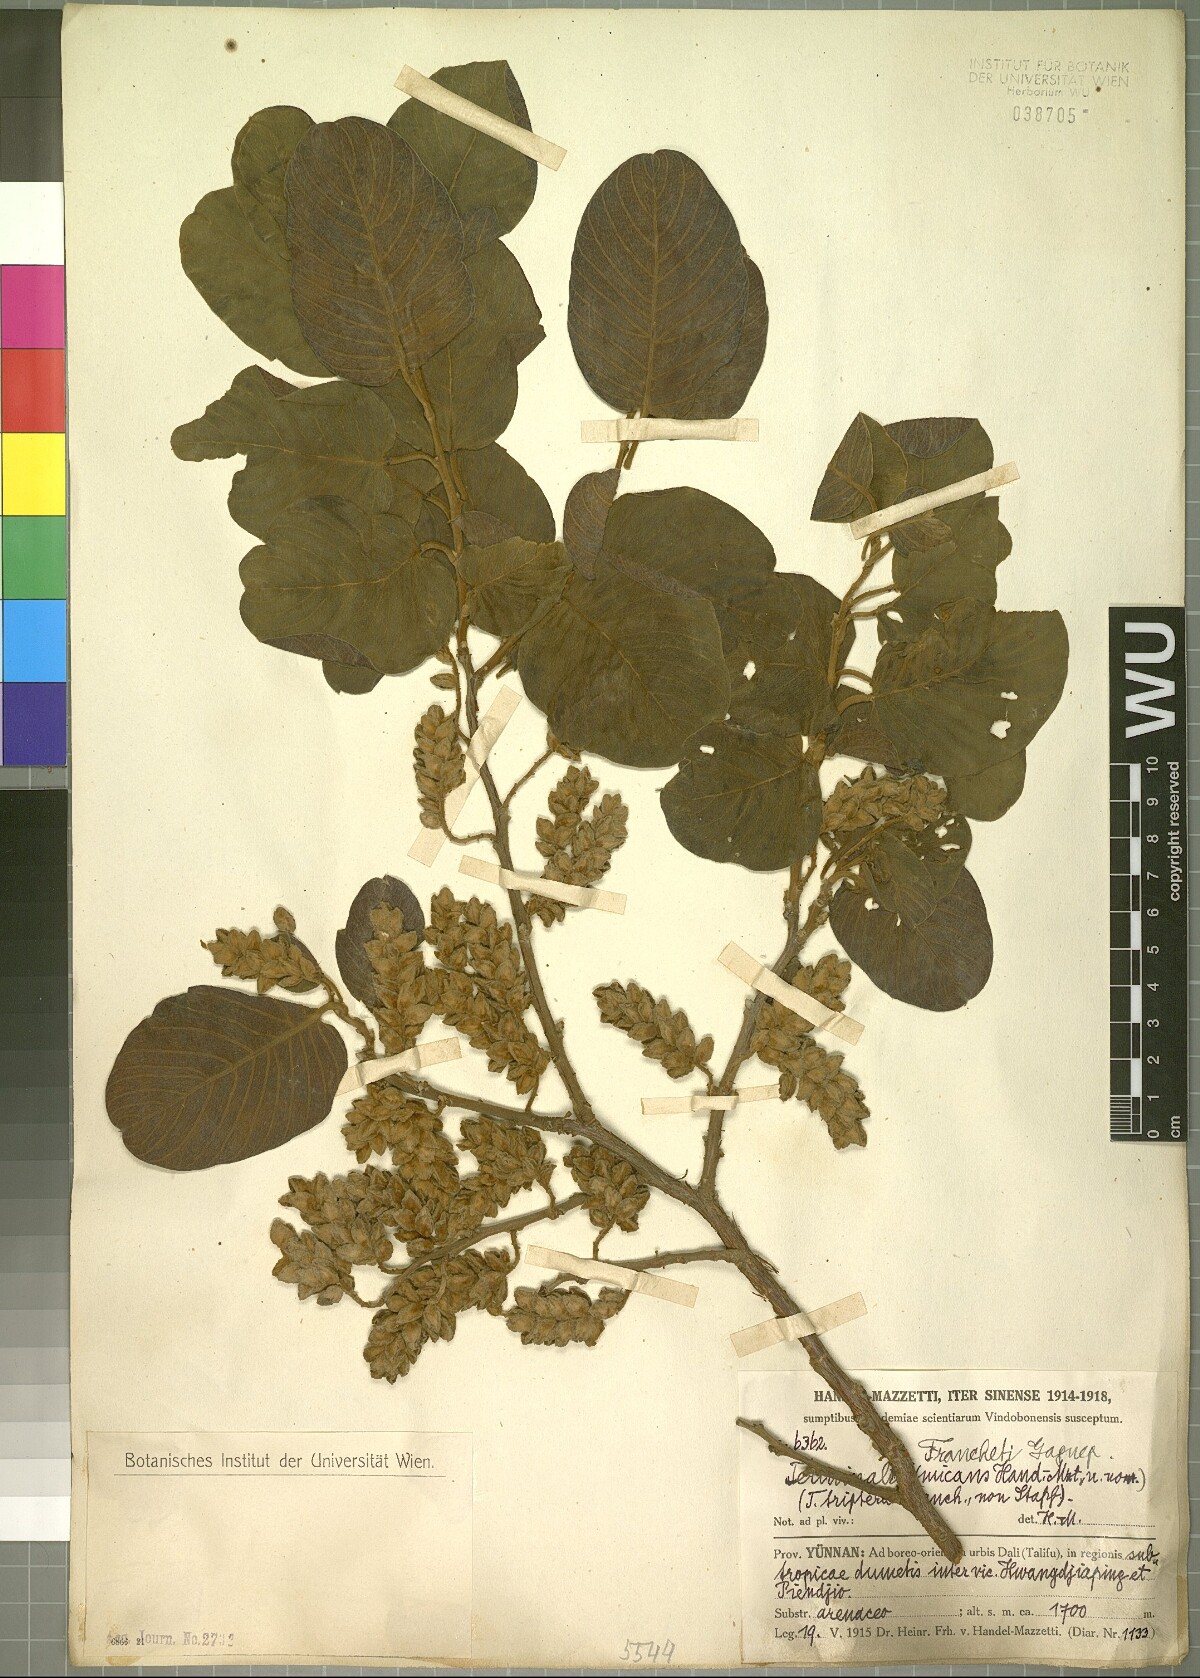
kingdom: Plantae
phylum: Tracheophyta
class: Magnoliopsida
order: Myrtales
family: Combretaceae
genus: Terminalia
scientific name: Terminalia franchetii
